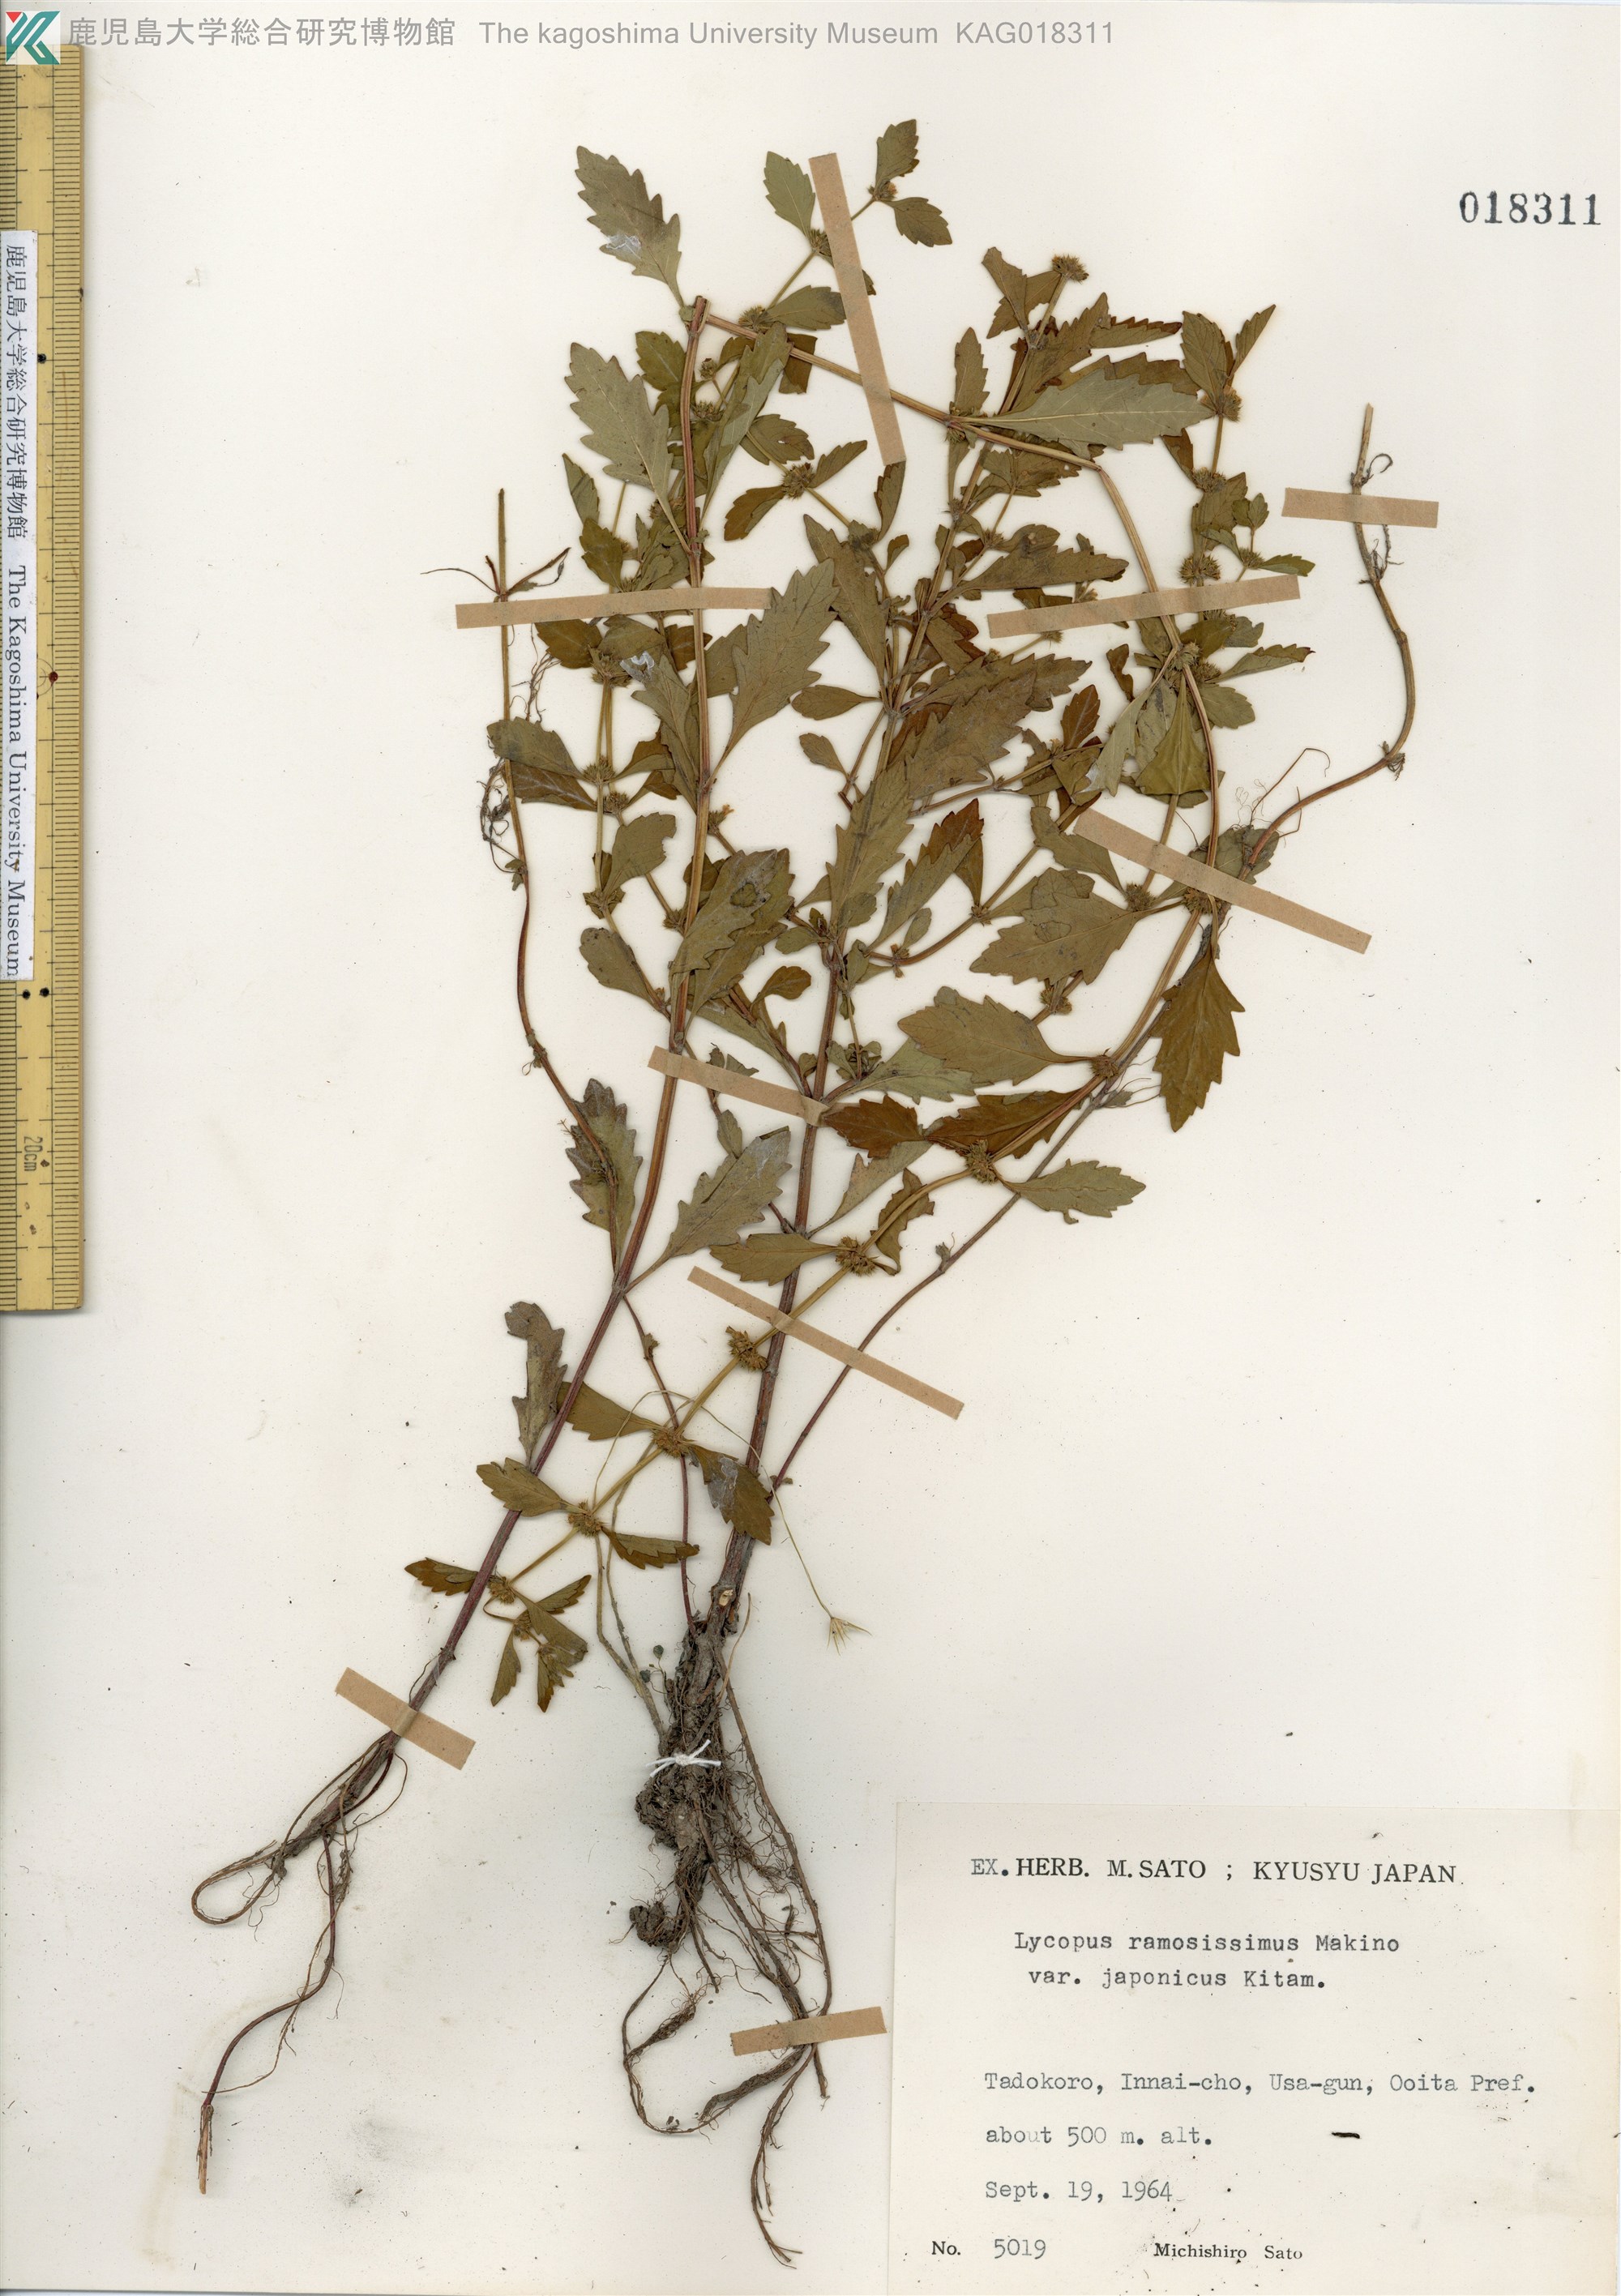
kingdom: Plantae
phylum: Tracheophyta
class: Magnoliopsida
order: Lamiales
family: Lamiaceae
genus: Lycopus
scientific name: Lycopus cavaleriei
